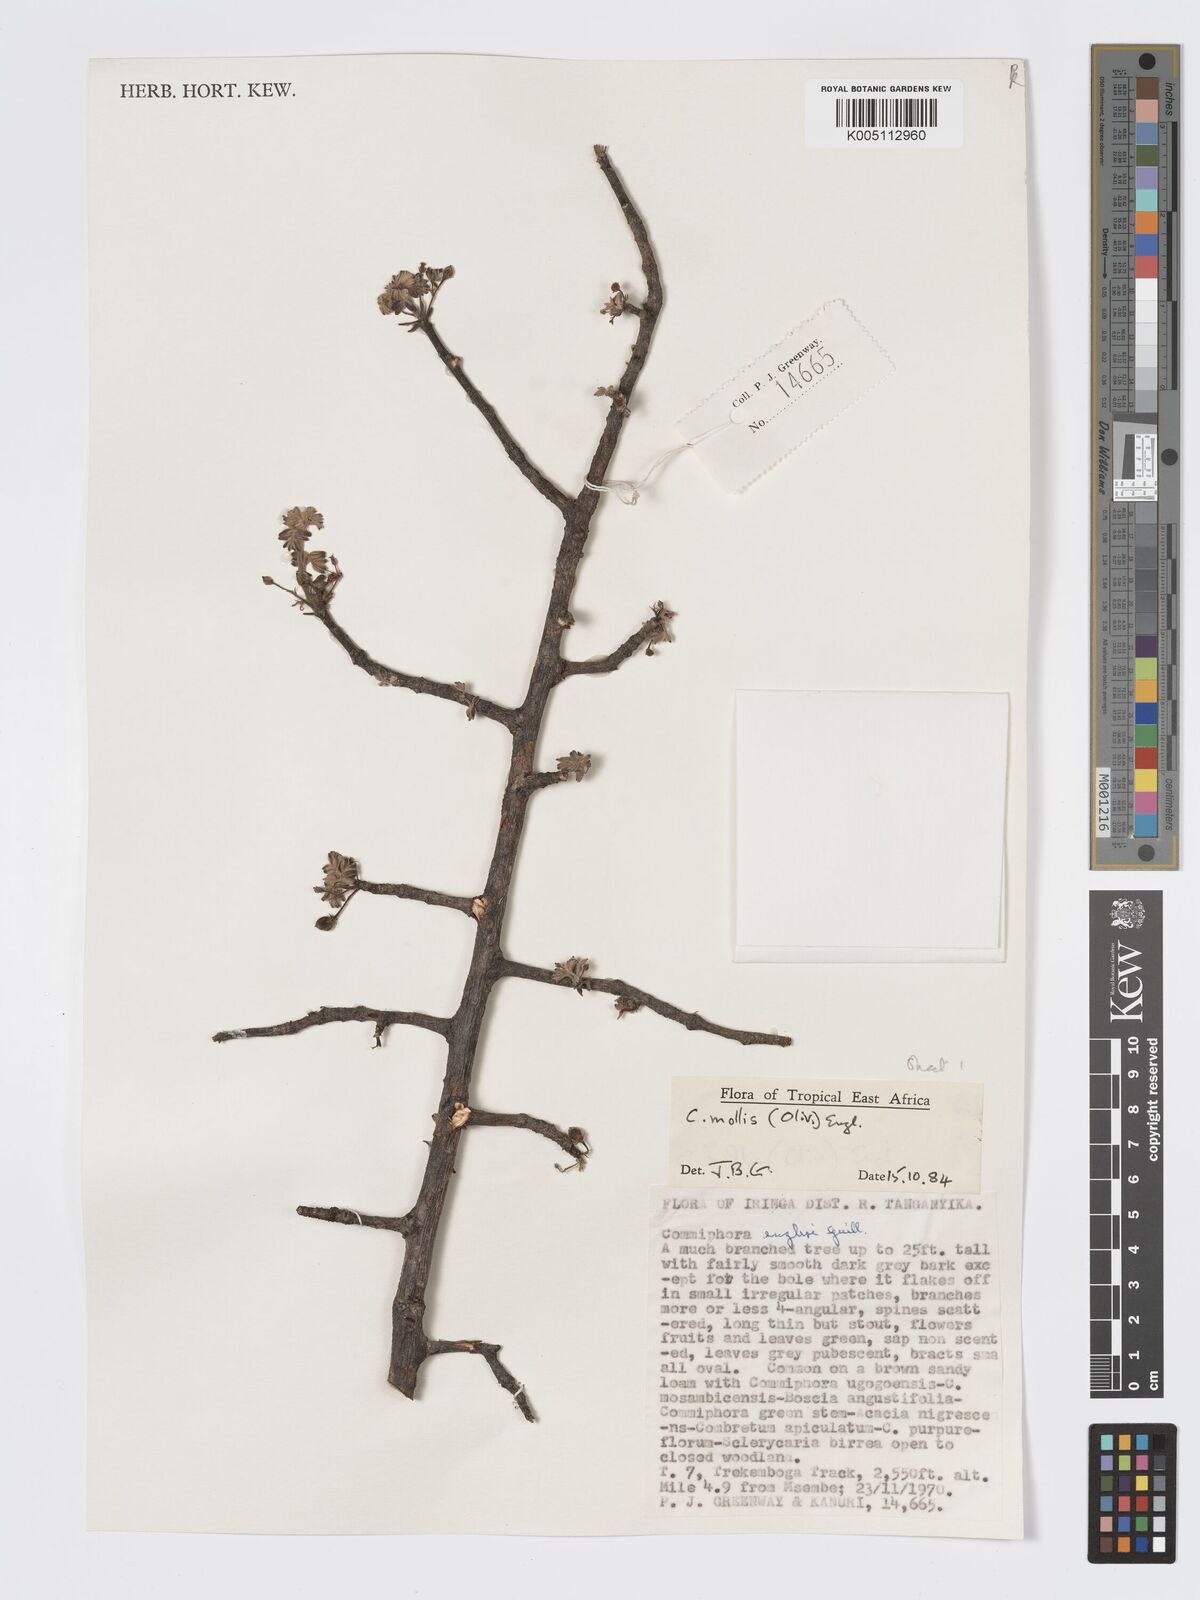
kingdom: Plantae
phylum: Tracheophyta
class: Magnoliopsida
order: Sapindales
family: Burseraceae
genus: Commiphora
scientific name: Commiphora
